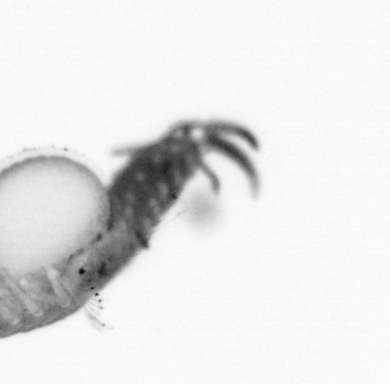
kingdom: Animalia
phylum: Annelida
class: Polychaeta
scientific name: Polychaeta
